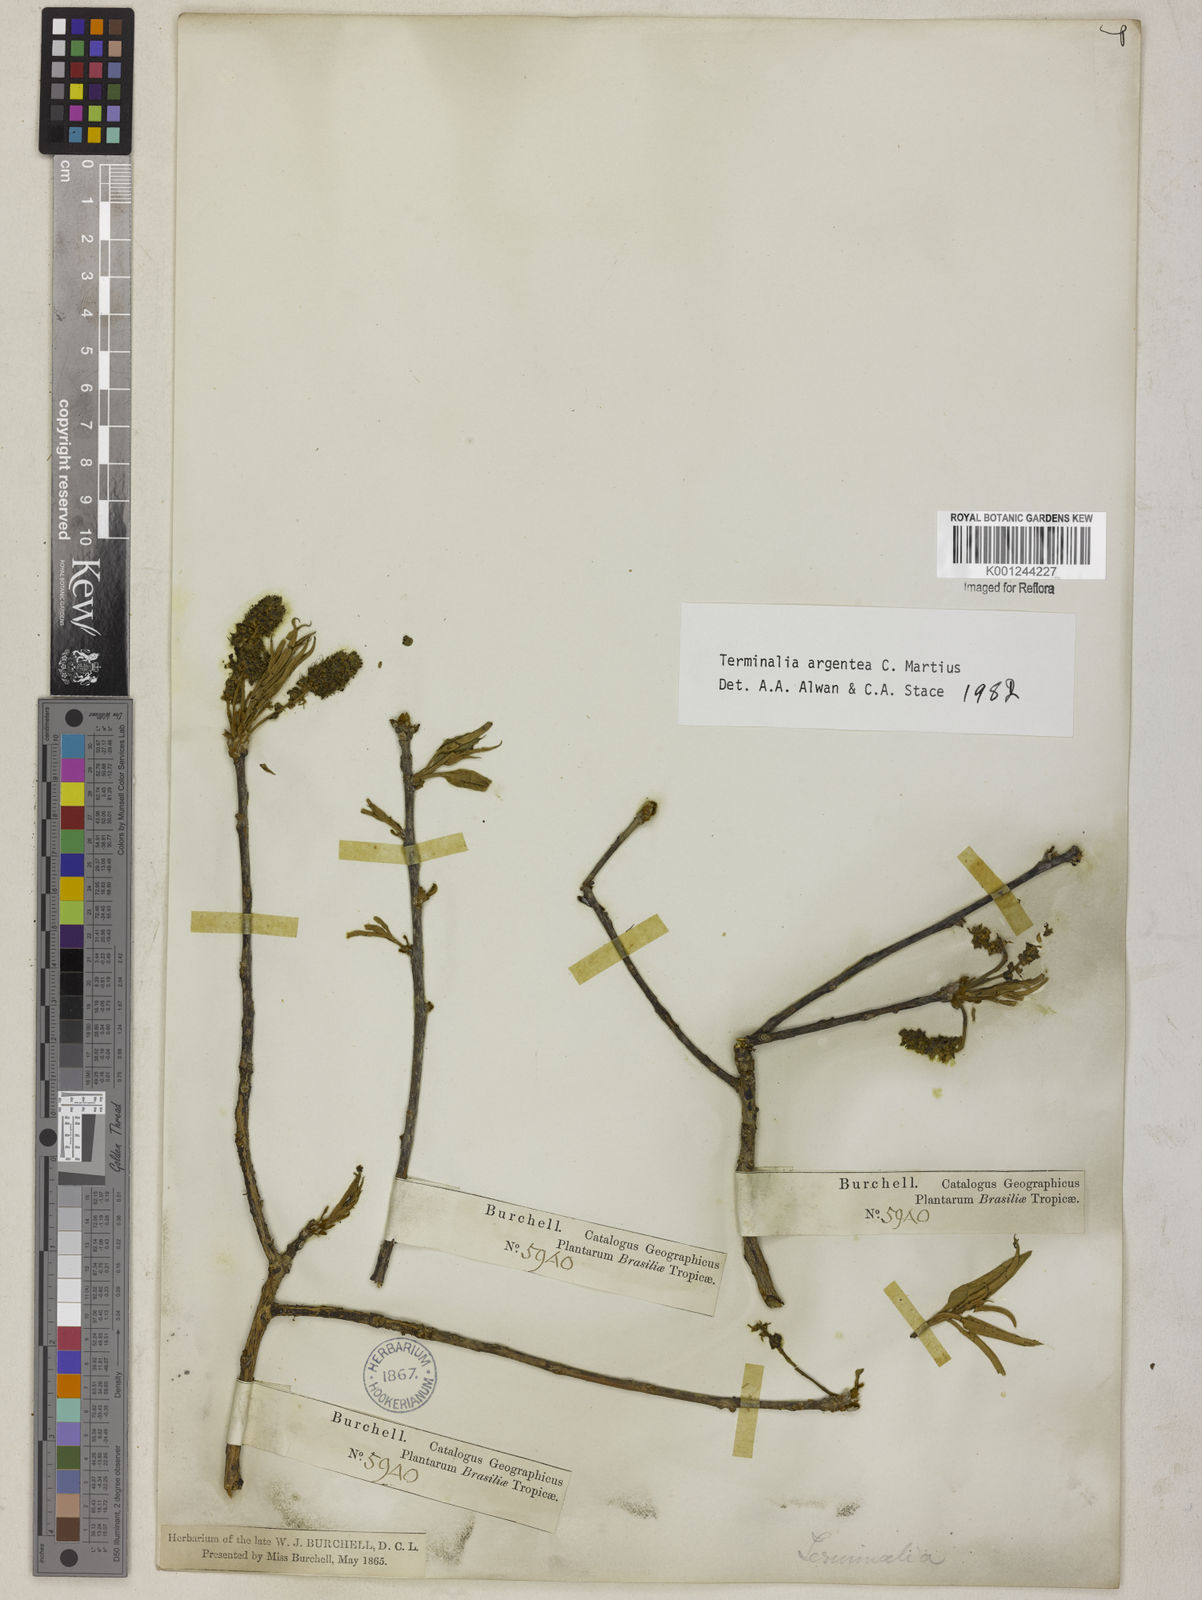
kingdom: Plantae
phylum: Tracheophyta
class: Magnoliopsida
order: Myrtales
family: Combretaceae
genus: Terminalia
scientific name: Terminalia argentea
